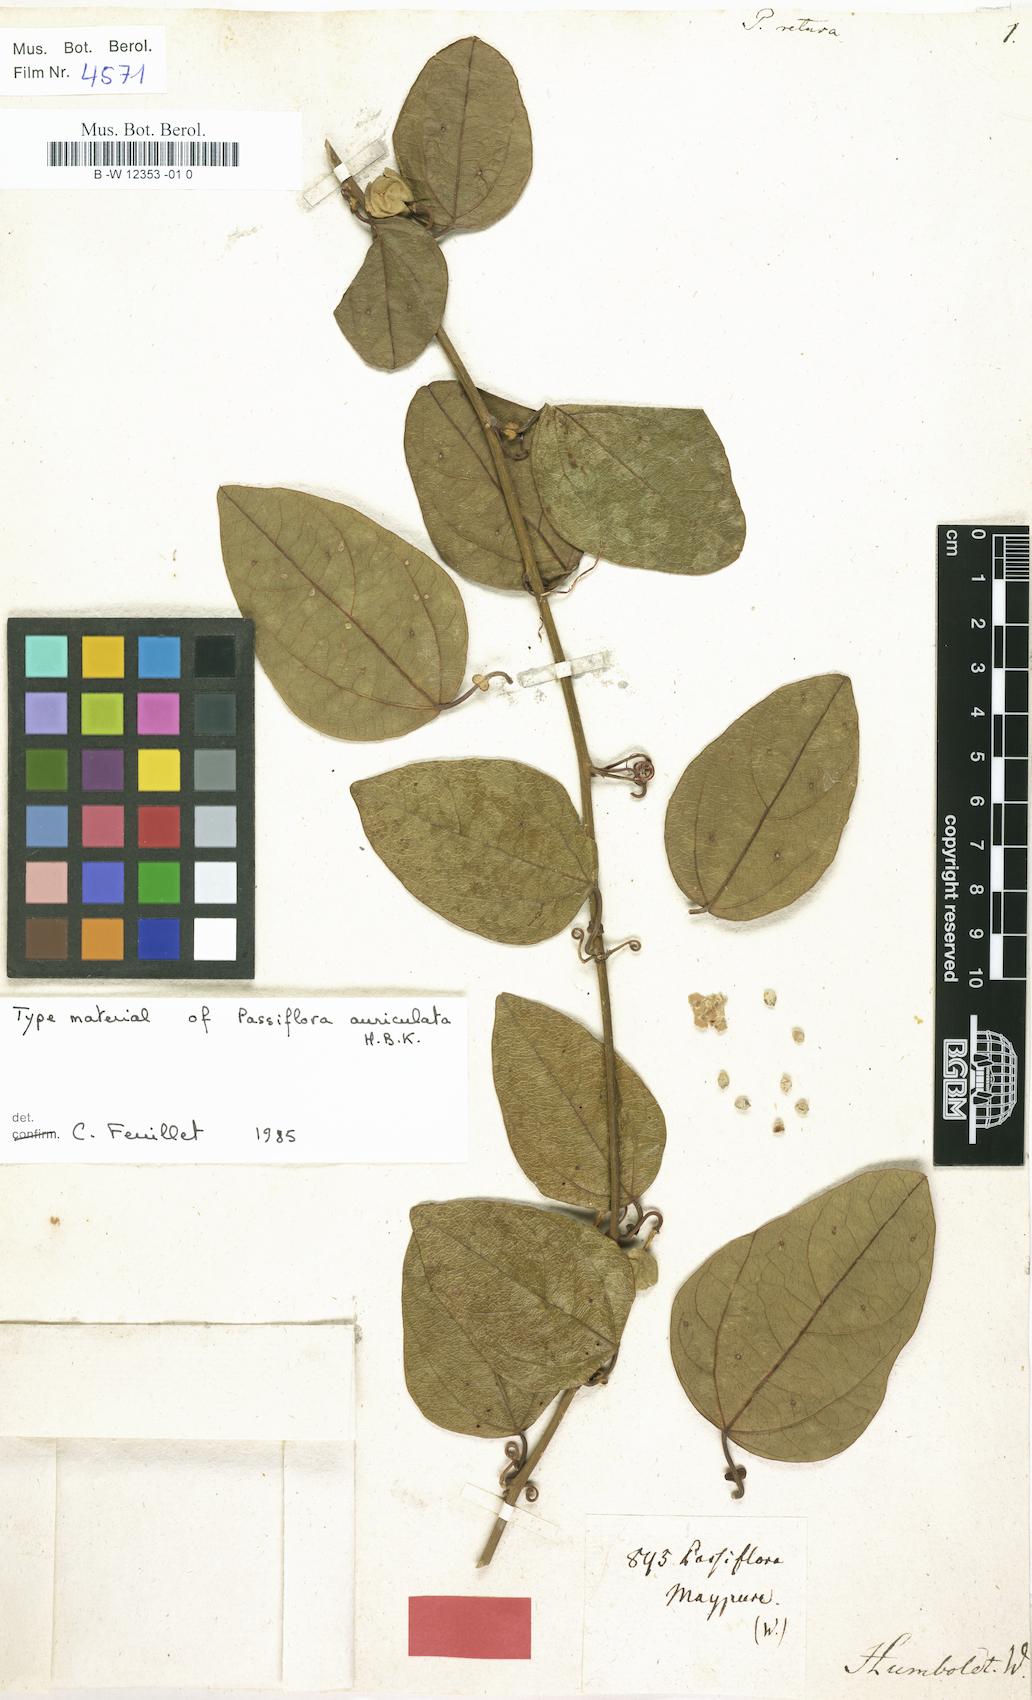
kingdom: Plantae
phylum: Tracheophyta
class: Magnoliopsida
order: Malpighiales
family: Passifloraceae
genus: Passiflora
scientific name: Passiflora misera
